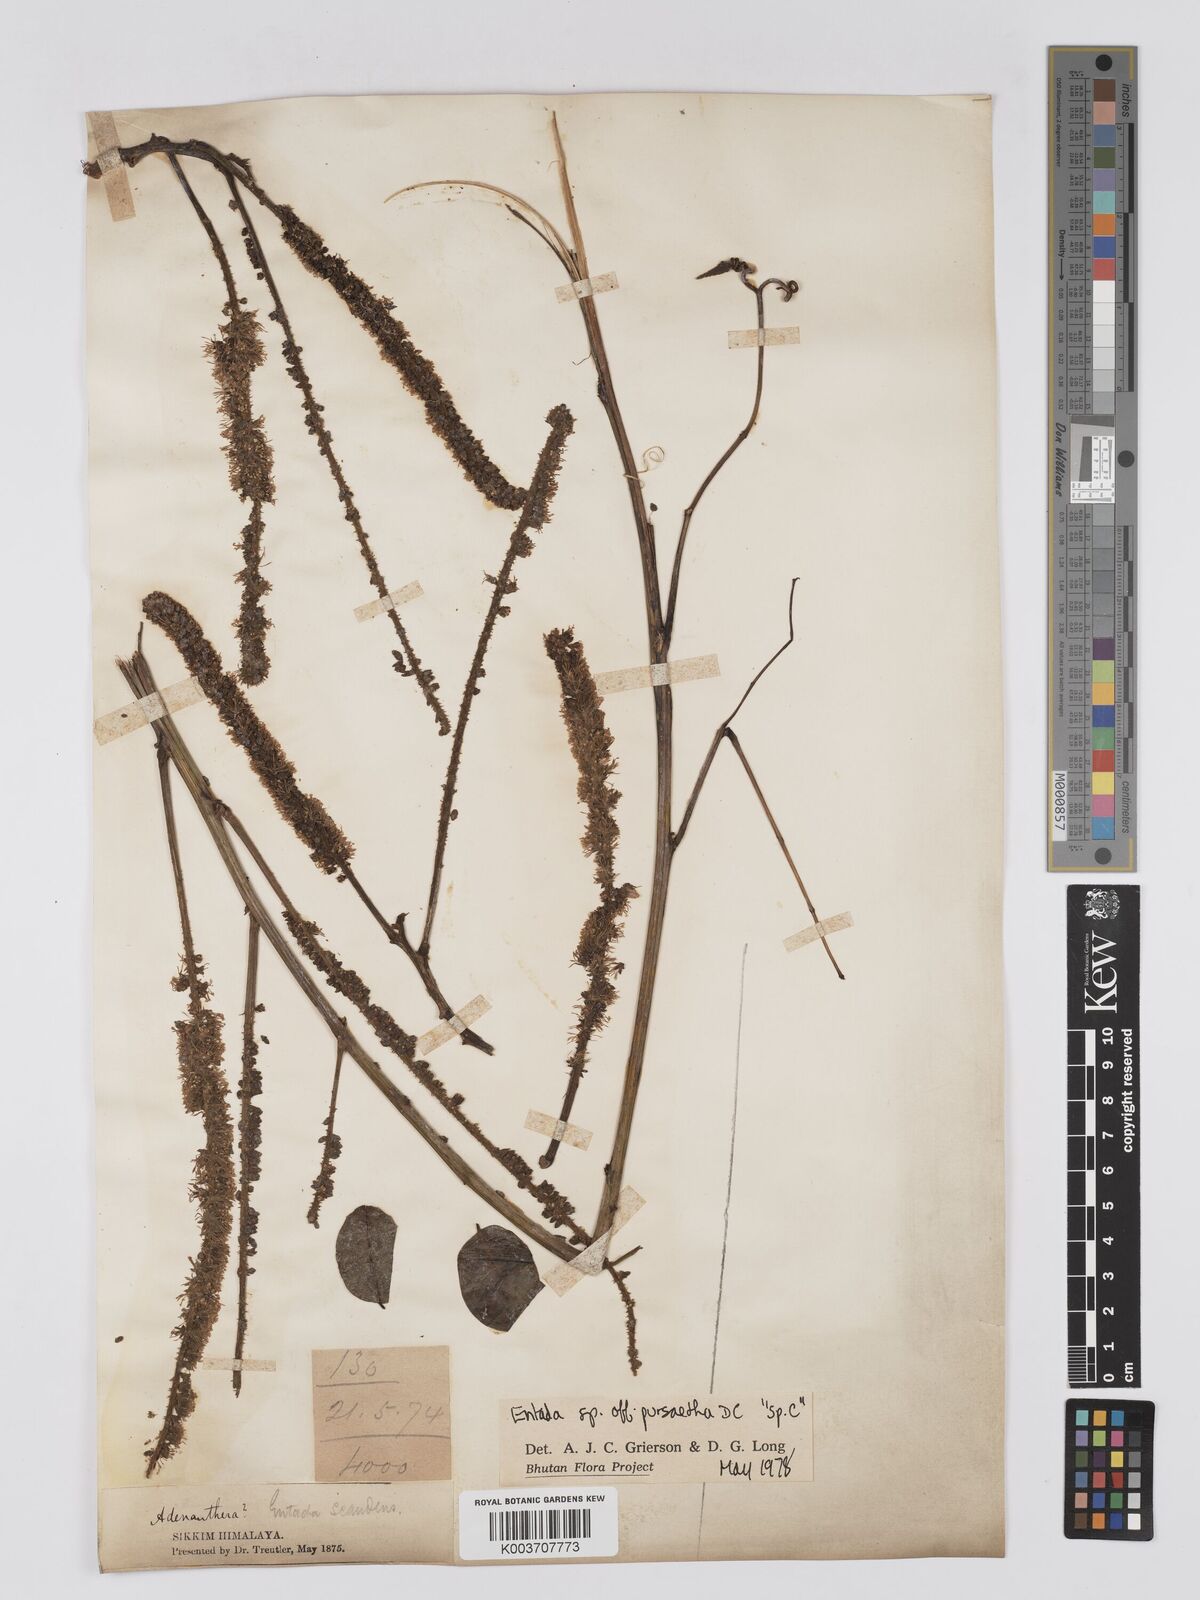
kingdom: Plantae
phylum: Tracheophyta
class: Magnoliopsida
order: Fabales
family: Fabaceae
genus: Entada
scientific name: Entada
